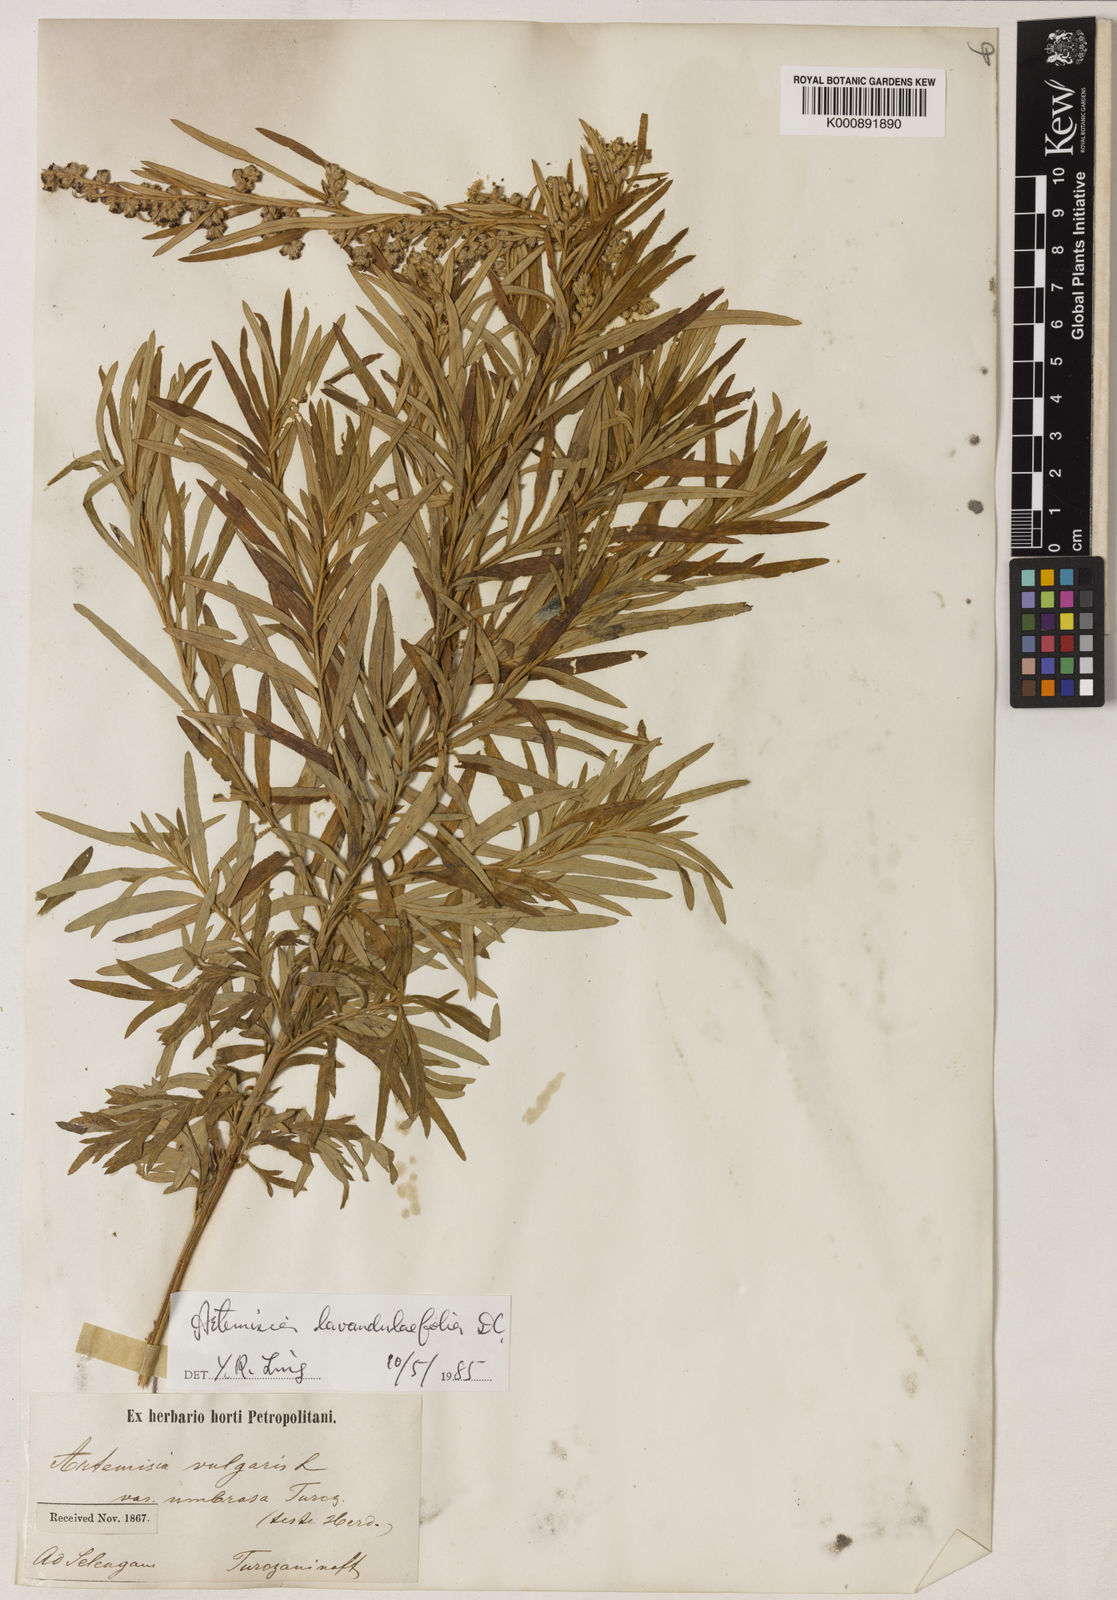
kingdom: Plantae
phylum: Tracheophyta
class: Magnoliopsida
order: Asterales
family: Asteraceae
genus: Artemisia
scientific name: Artemisia umbrosa
